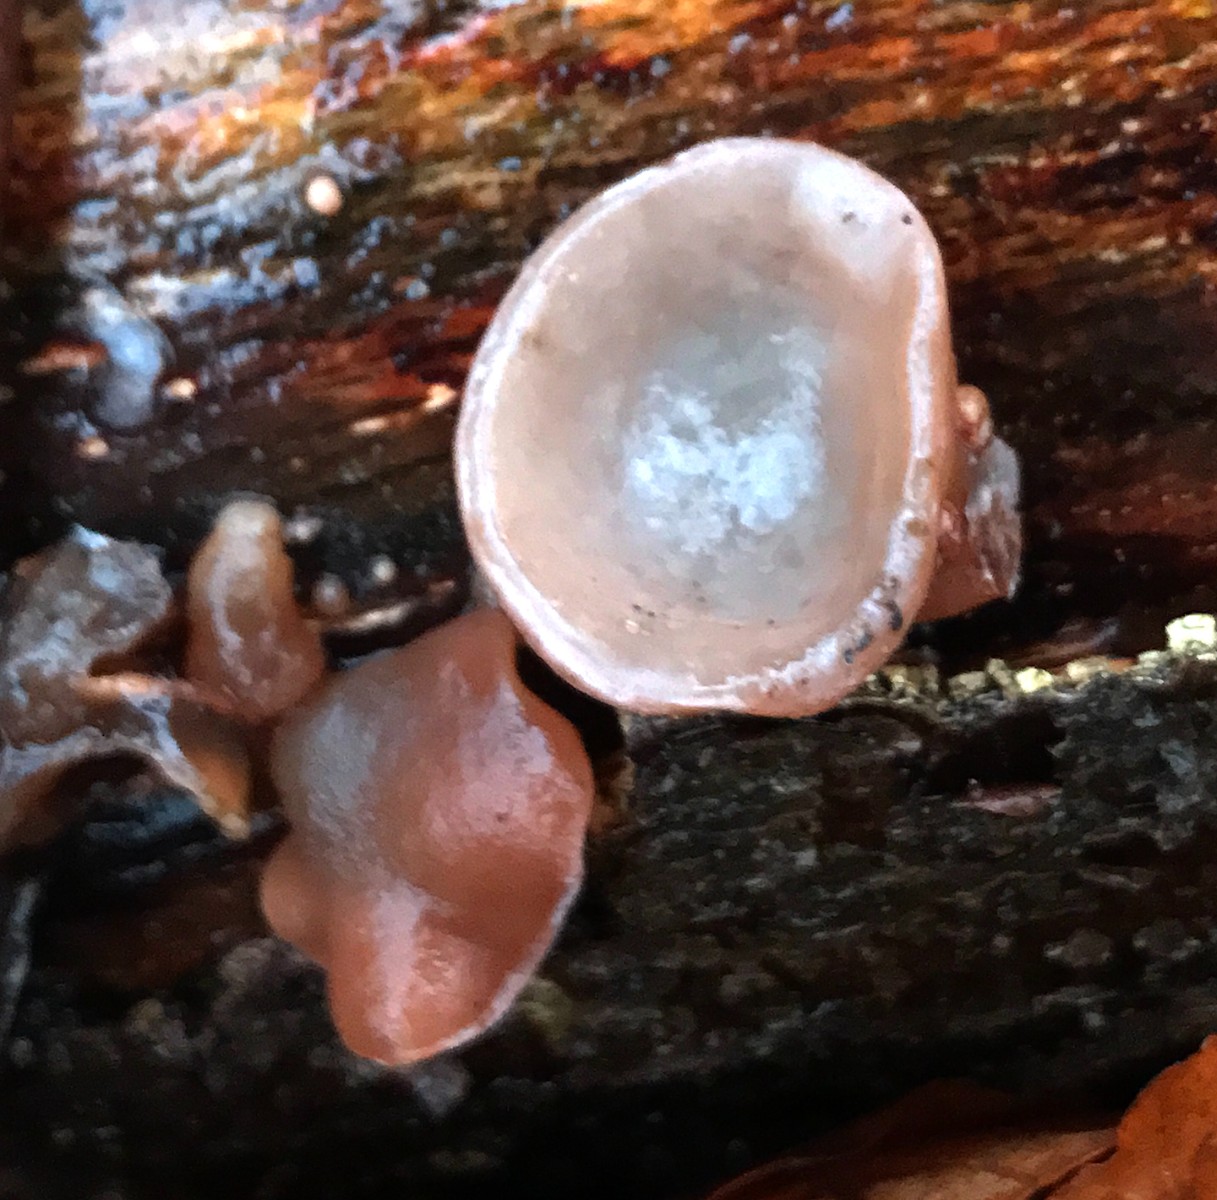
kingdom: Fungi
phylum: Basidiomycota
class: Agaricomycetes
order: Auriculariales
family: Auriculariaceae
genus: Auricularia
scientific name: Auricularia auricula-judae
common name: almindelig judasøre
